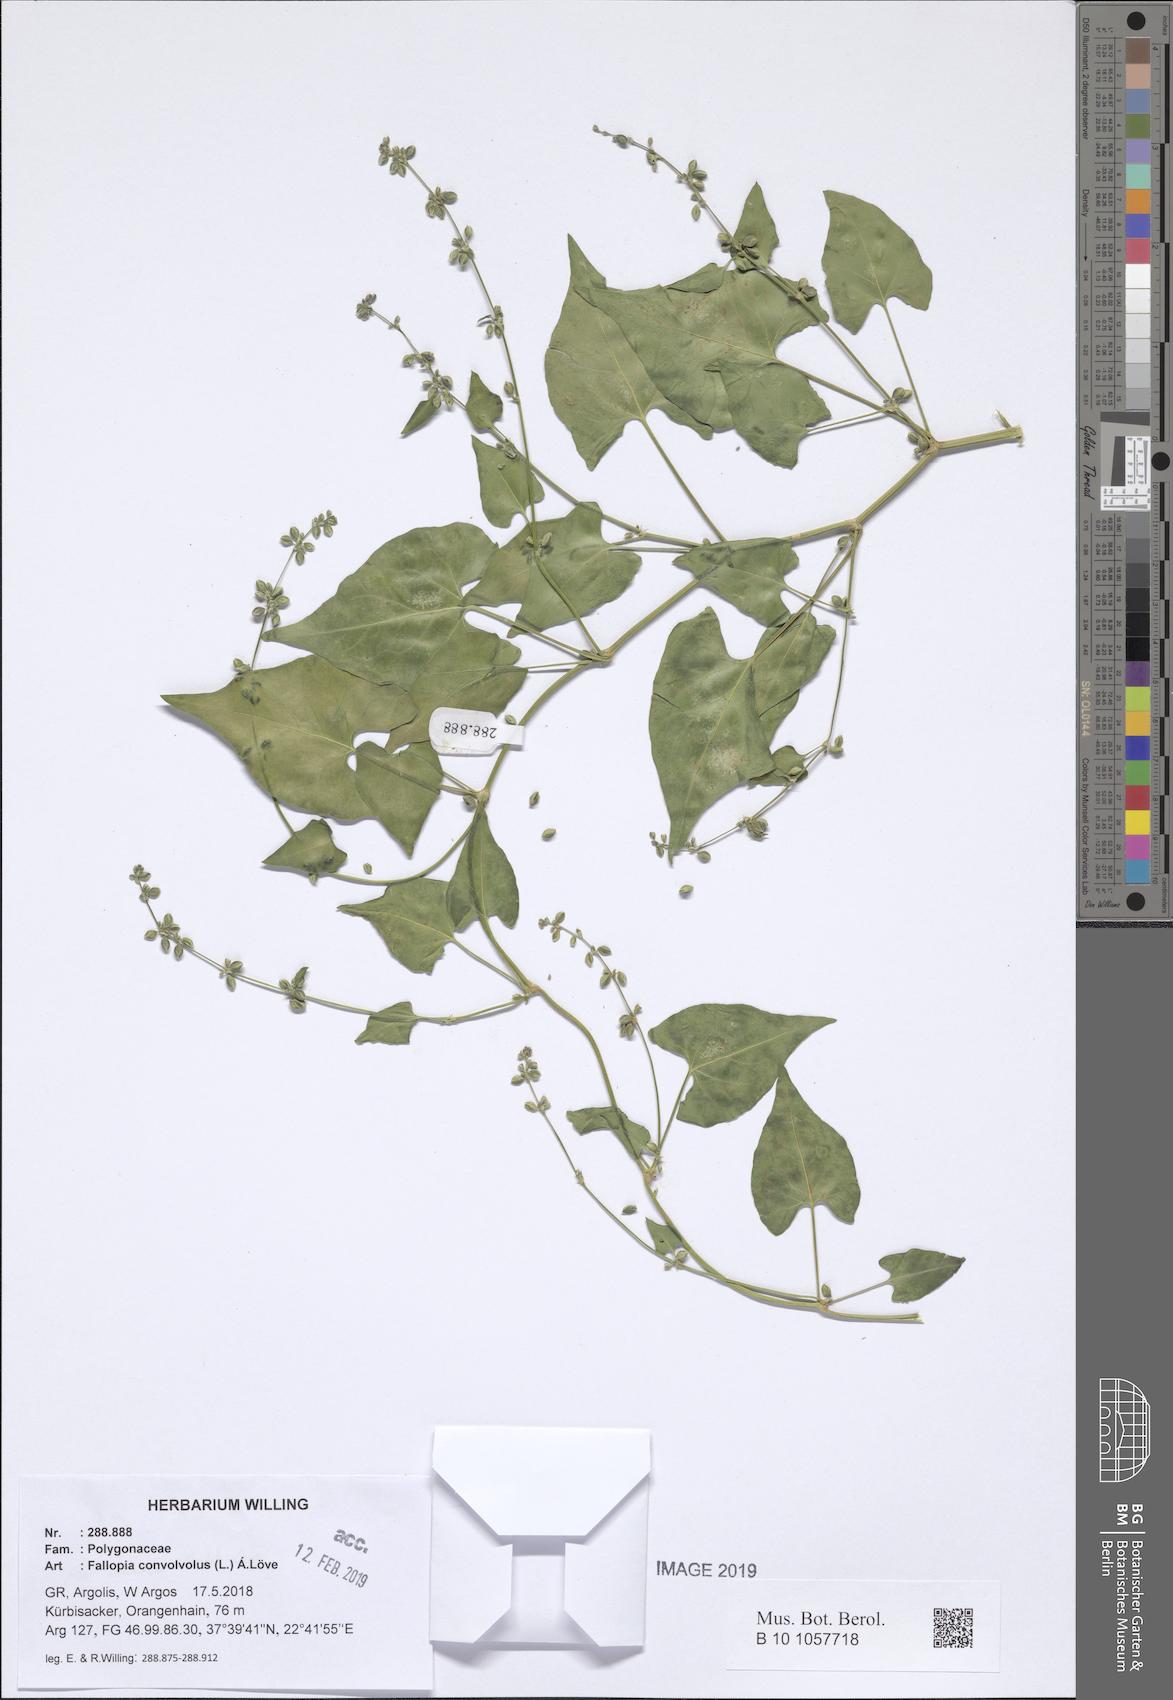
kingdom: Plantae
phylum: Tracheophyta
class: Magnoliopsida
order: Caryophyllales
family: Polygonaceae
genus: Fallopia
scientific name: Fallopia convolvulus
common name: Black bindweed
